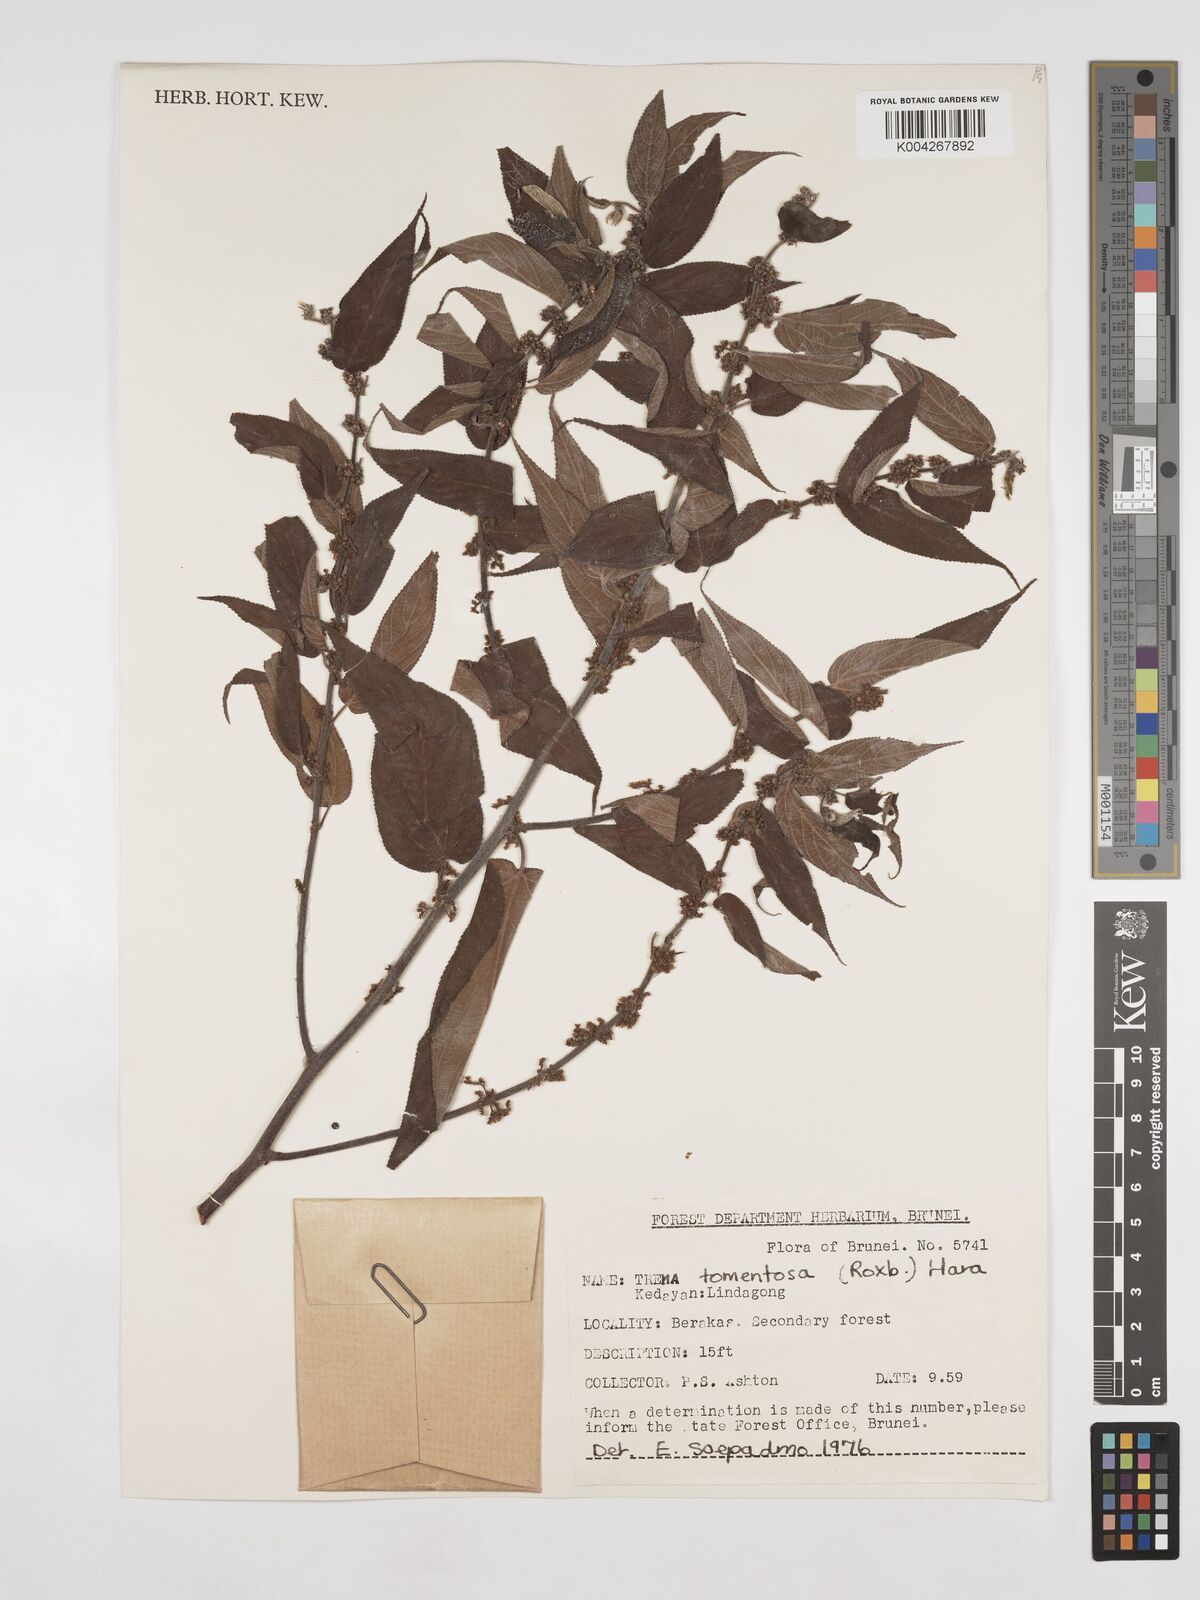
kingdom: Plantae
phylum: Tracheophyta
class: Magnoliopsida
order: Rosales
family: Cannabaceae
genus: Trema
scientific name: Trema tomentosum
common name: Peach-leaf-poisonbush
